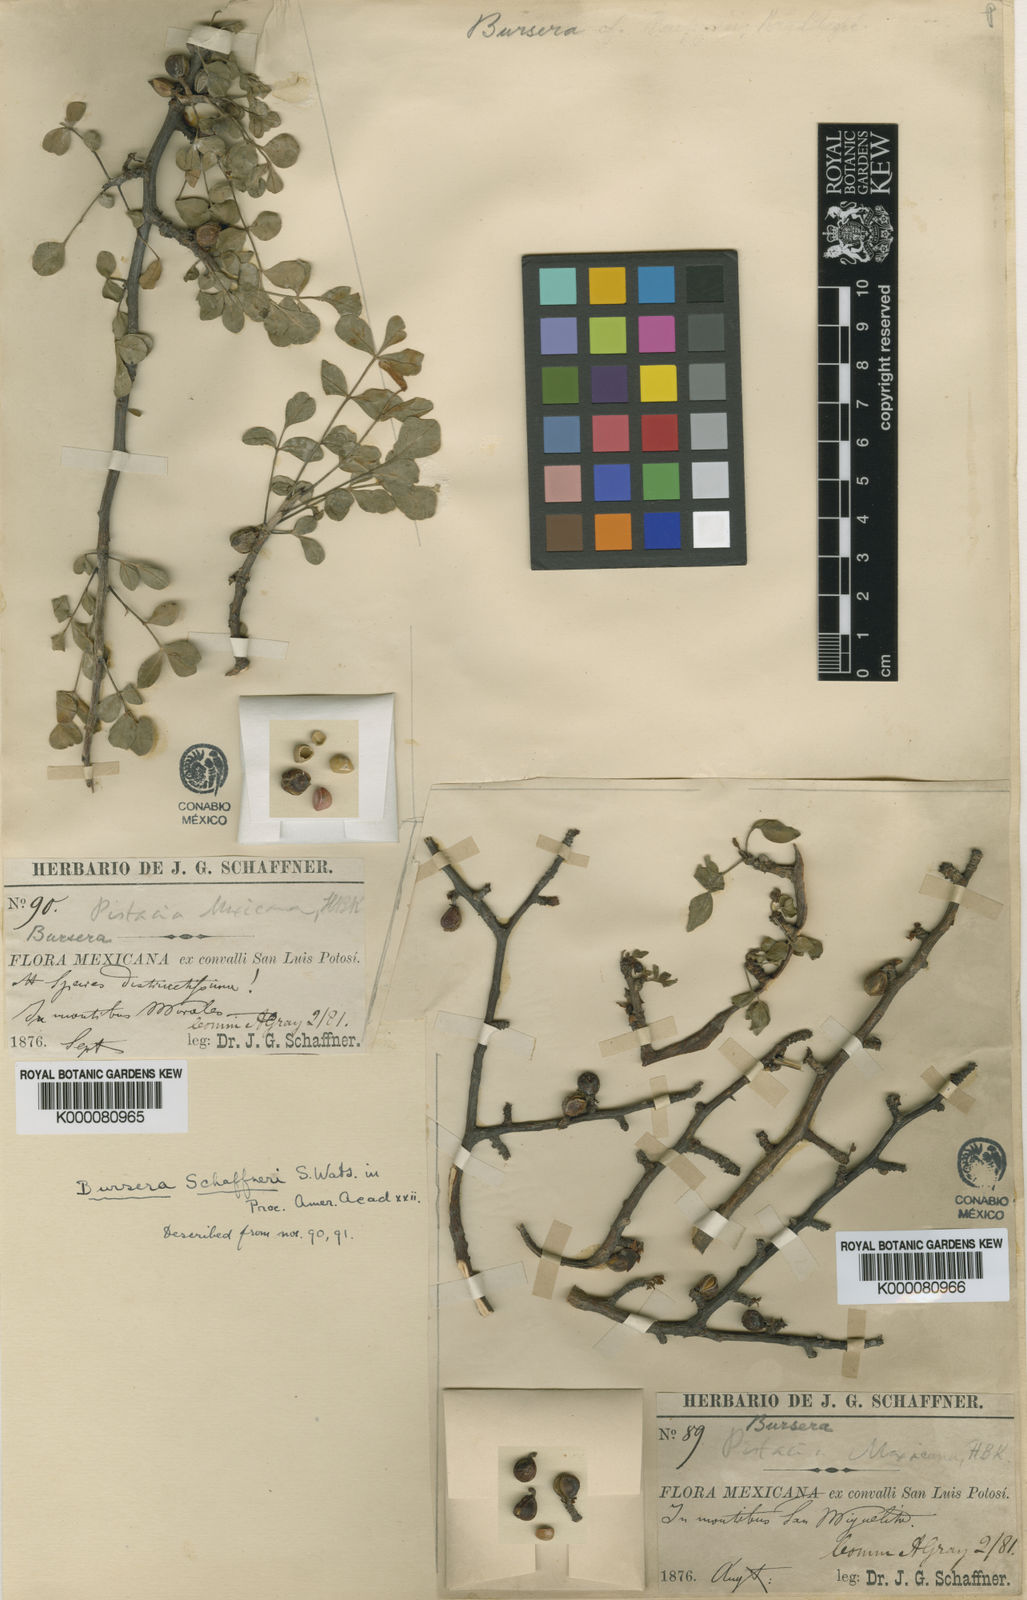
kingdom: Plantae
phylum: Tracheophyta
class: Magnoliopsida
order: Sapindales
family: Burseraceae
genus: Bursera
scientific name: Bursera fagaroides
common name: Elephant tree
